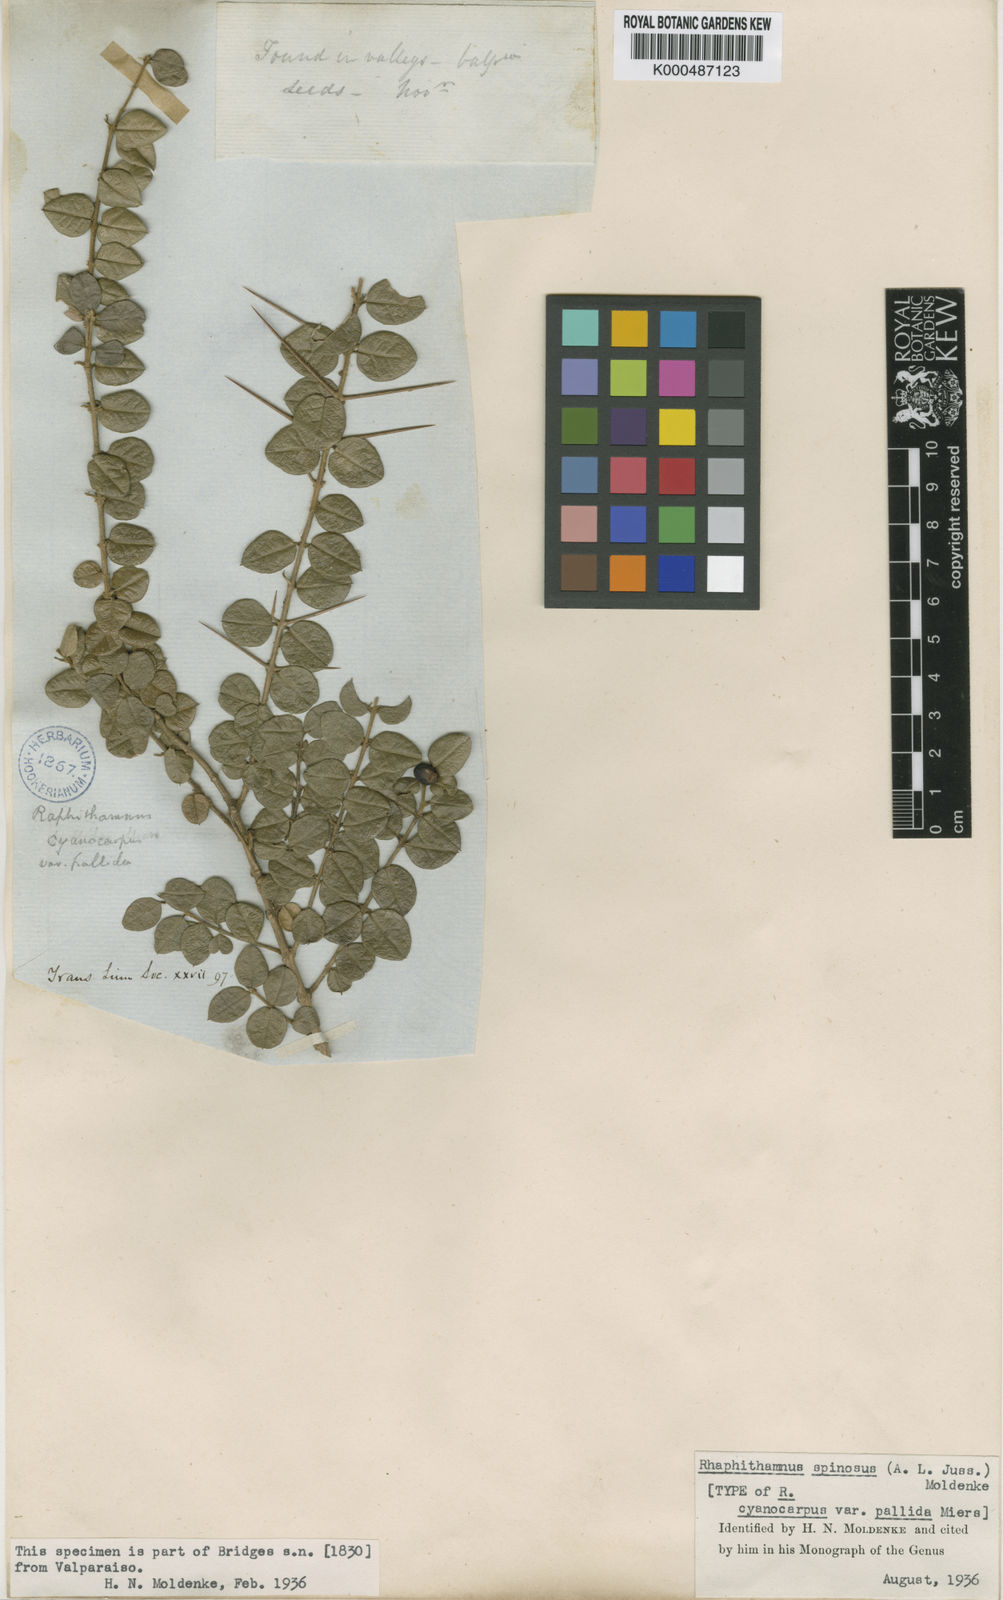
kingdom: Plantae
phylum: Tracheophyta
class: Magnoliopsida
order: Lamiales
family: Verbenaceae
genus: Rhaphithamnus
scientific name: Rhaphithamnus spinosus
